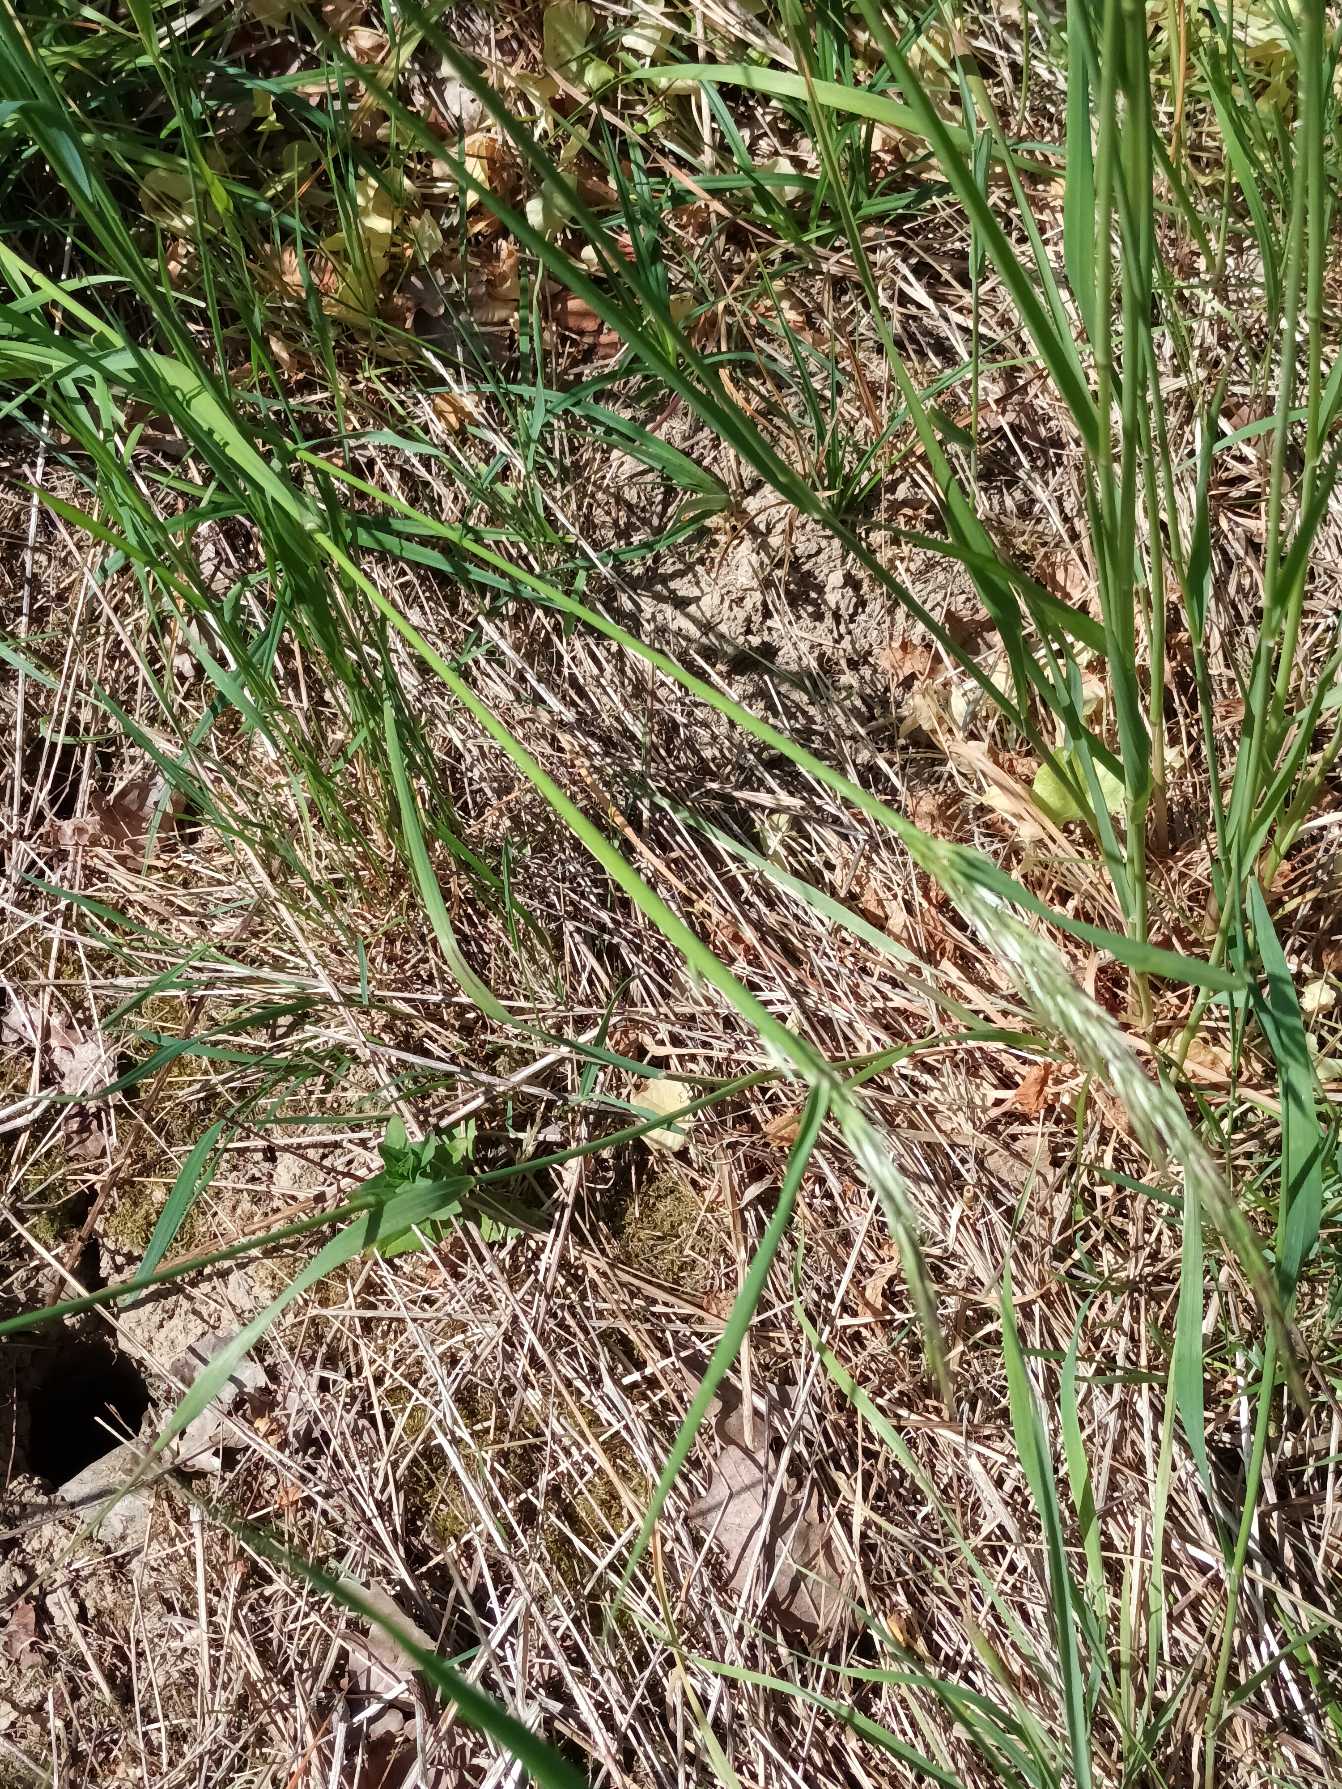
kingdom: Plantae
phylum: Tracheophyta
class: Liliopsida
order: Poales
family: Poaceae
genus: Arrhenatherum
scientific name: Arrhenatherum elatius
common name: Draphavre
